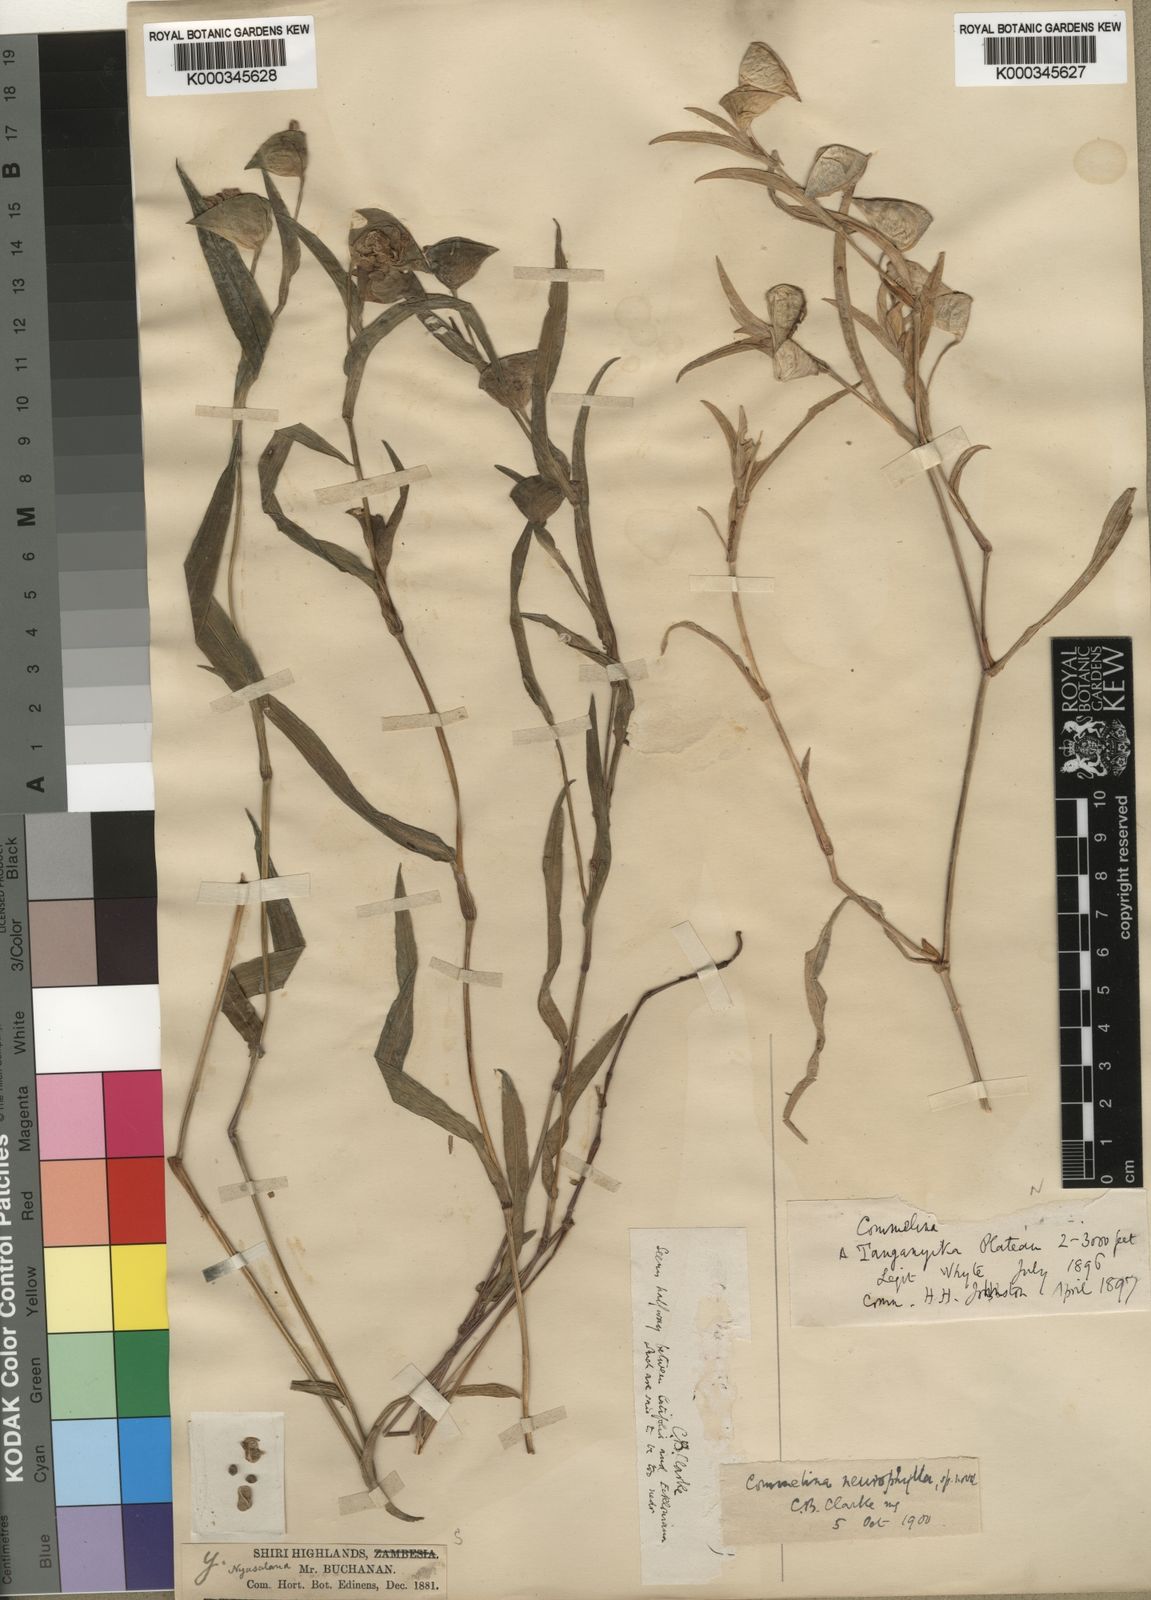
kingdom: Plantae
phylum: Tracheophyta
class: Liliopsida
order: Commelinales
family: Commelinaceae
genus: Commelina
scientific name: Commelina neurophylla
